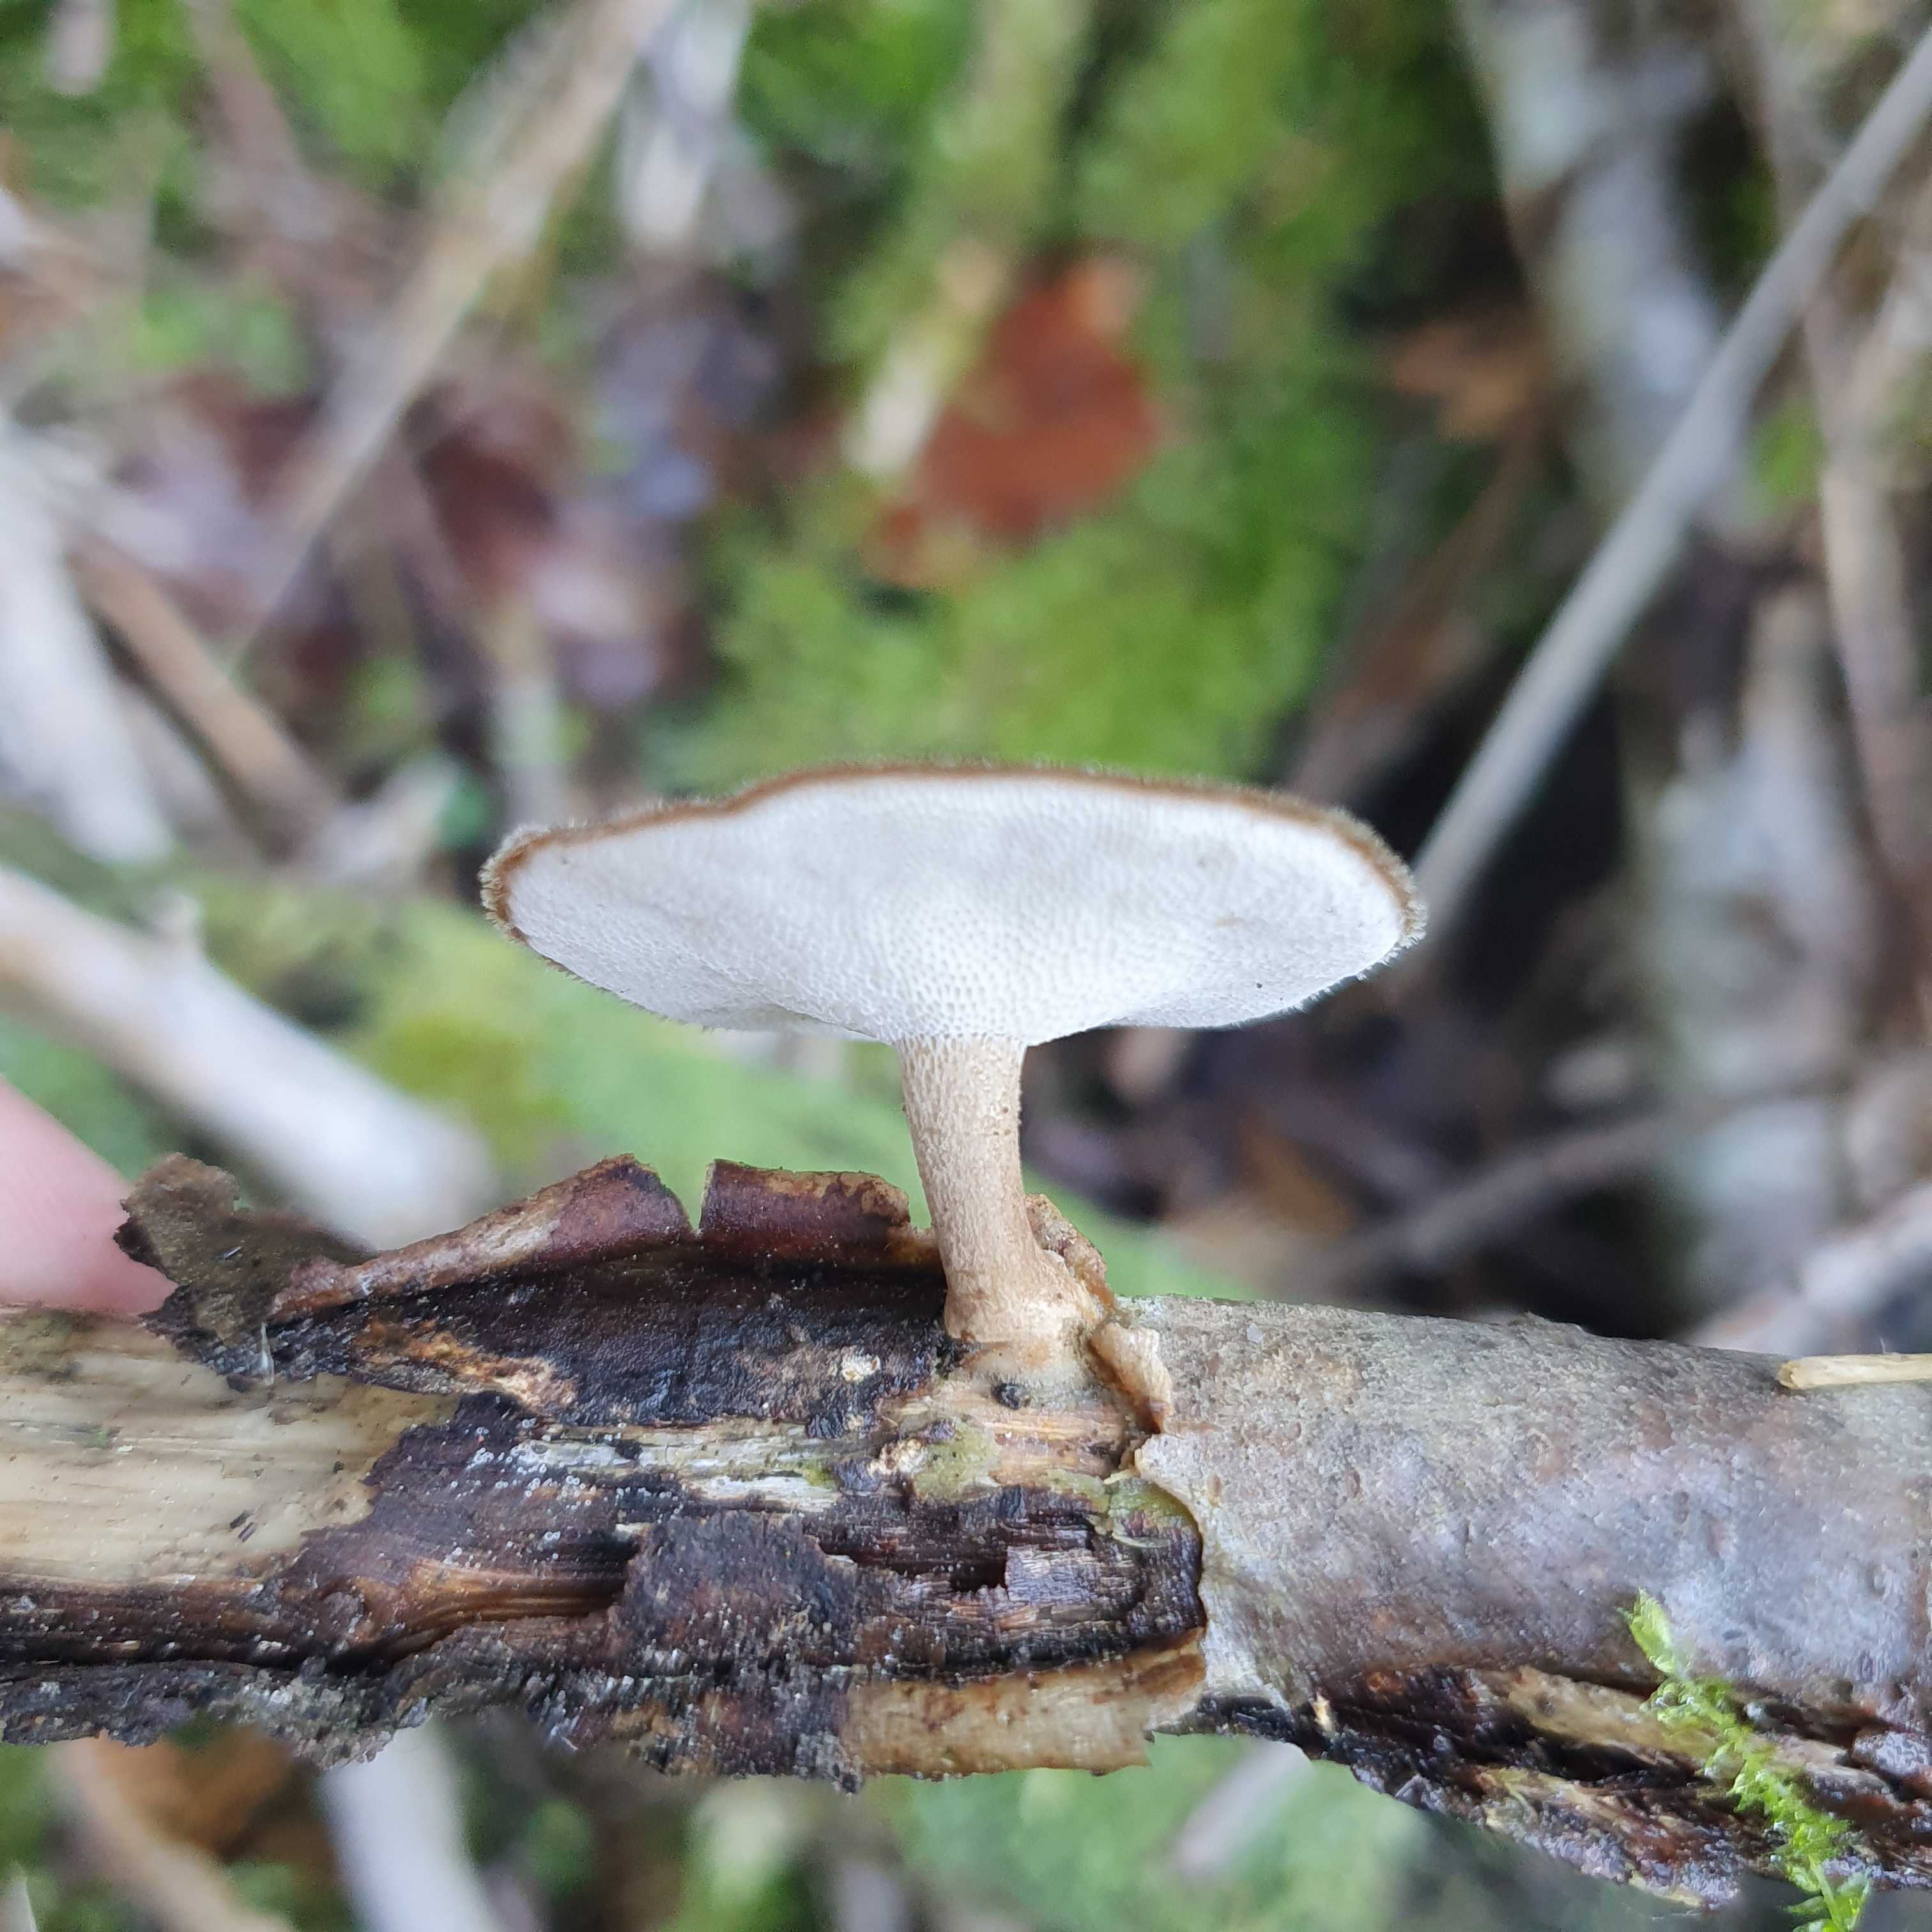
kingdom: Fungi
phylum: Basidiomycota
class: Agaricomycetes
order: Polyporales
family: Polyporaceae
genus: Lentinus
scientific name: Lentinus brumalis
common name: vinter-stilkporesvamp
